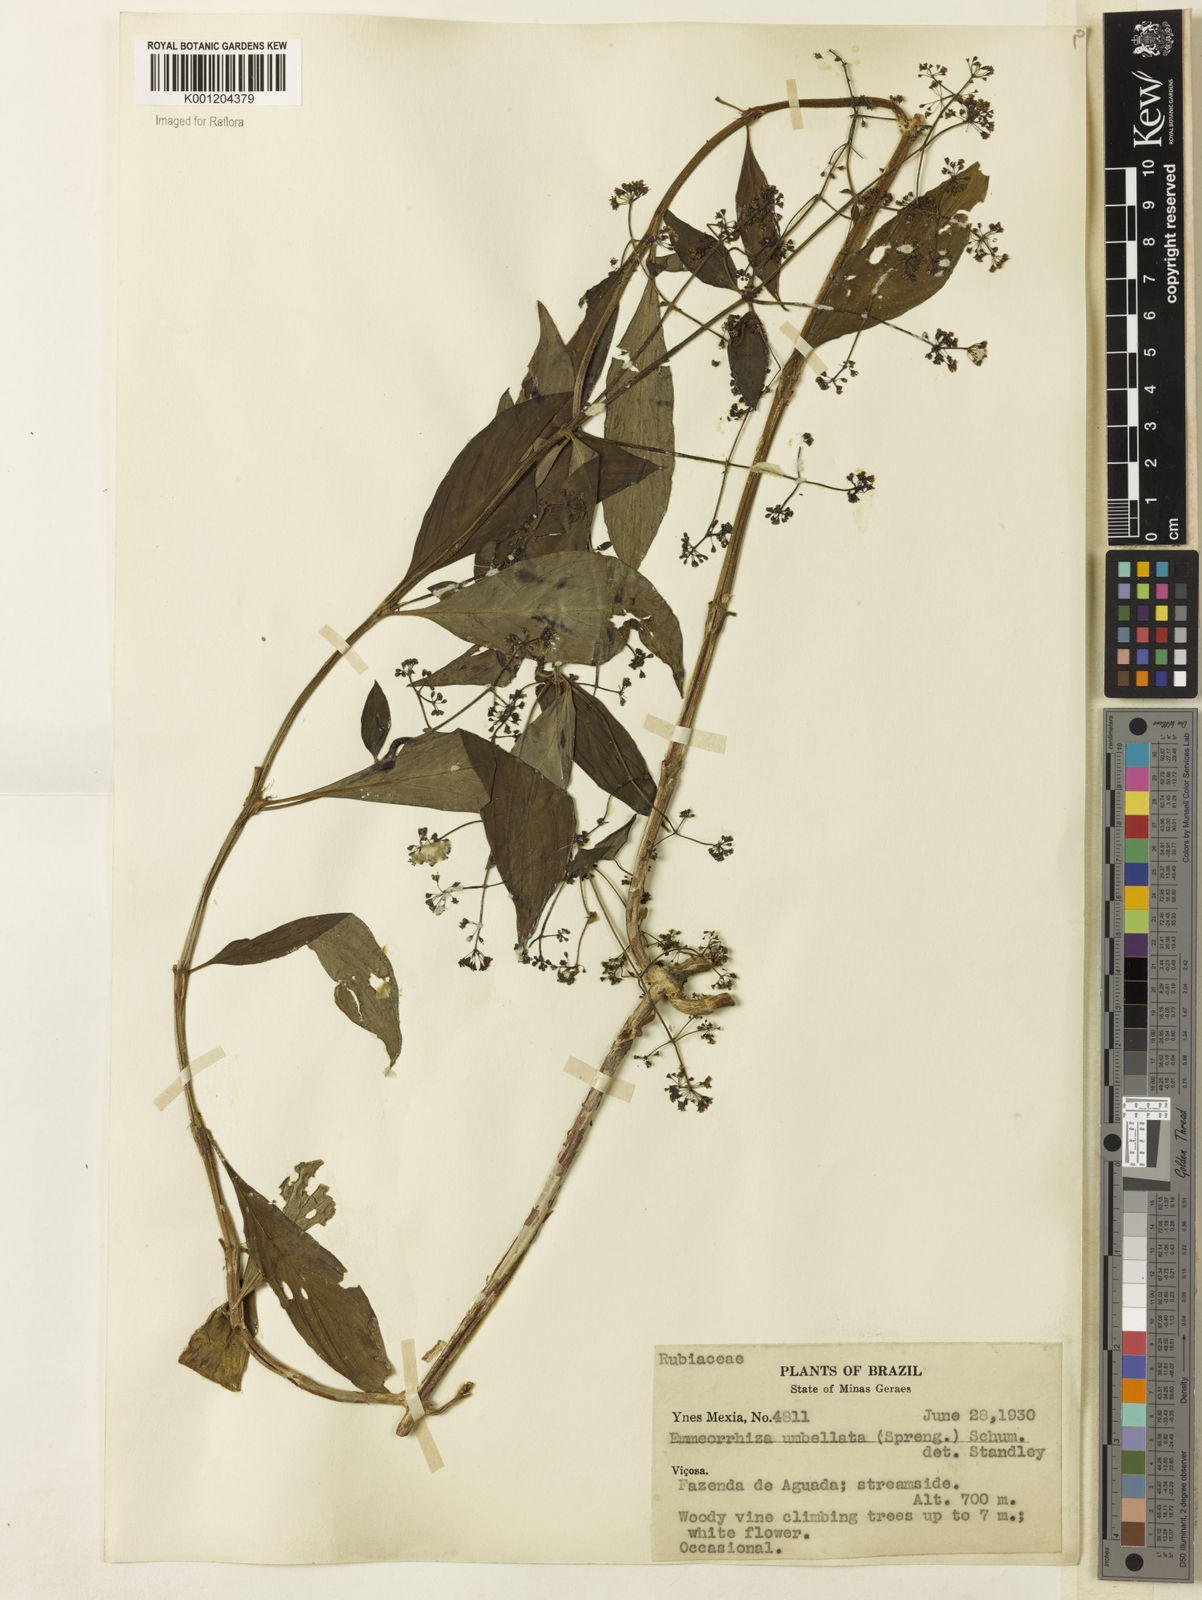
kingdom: Plantae
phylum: Tracheophyta
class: Magnoliopsida
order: Gentianales
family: Rubiaceae
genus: Emmeorhiza
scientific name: Emmeorhiza umbellata
